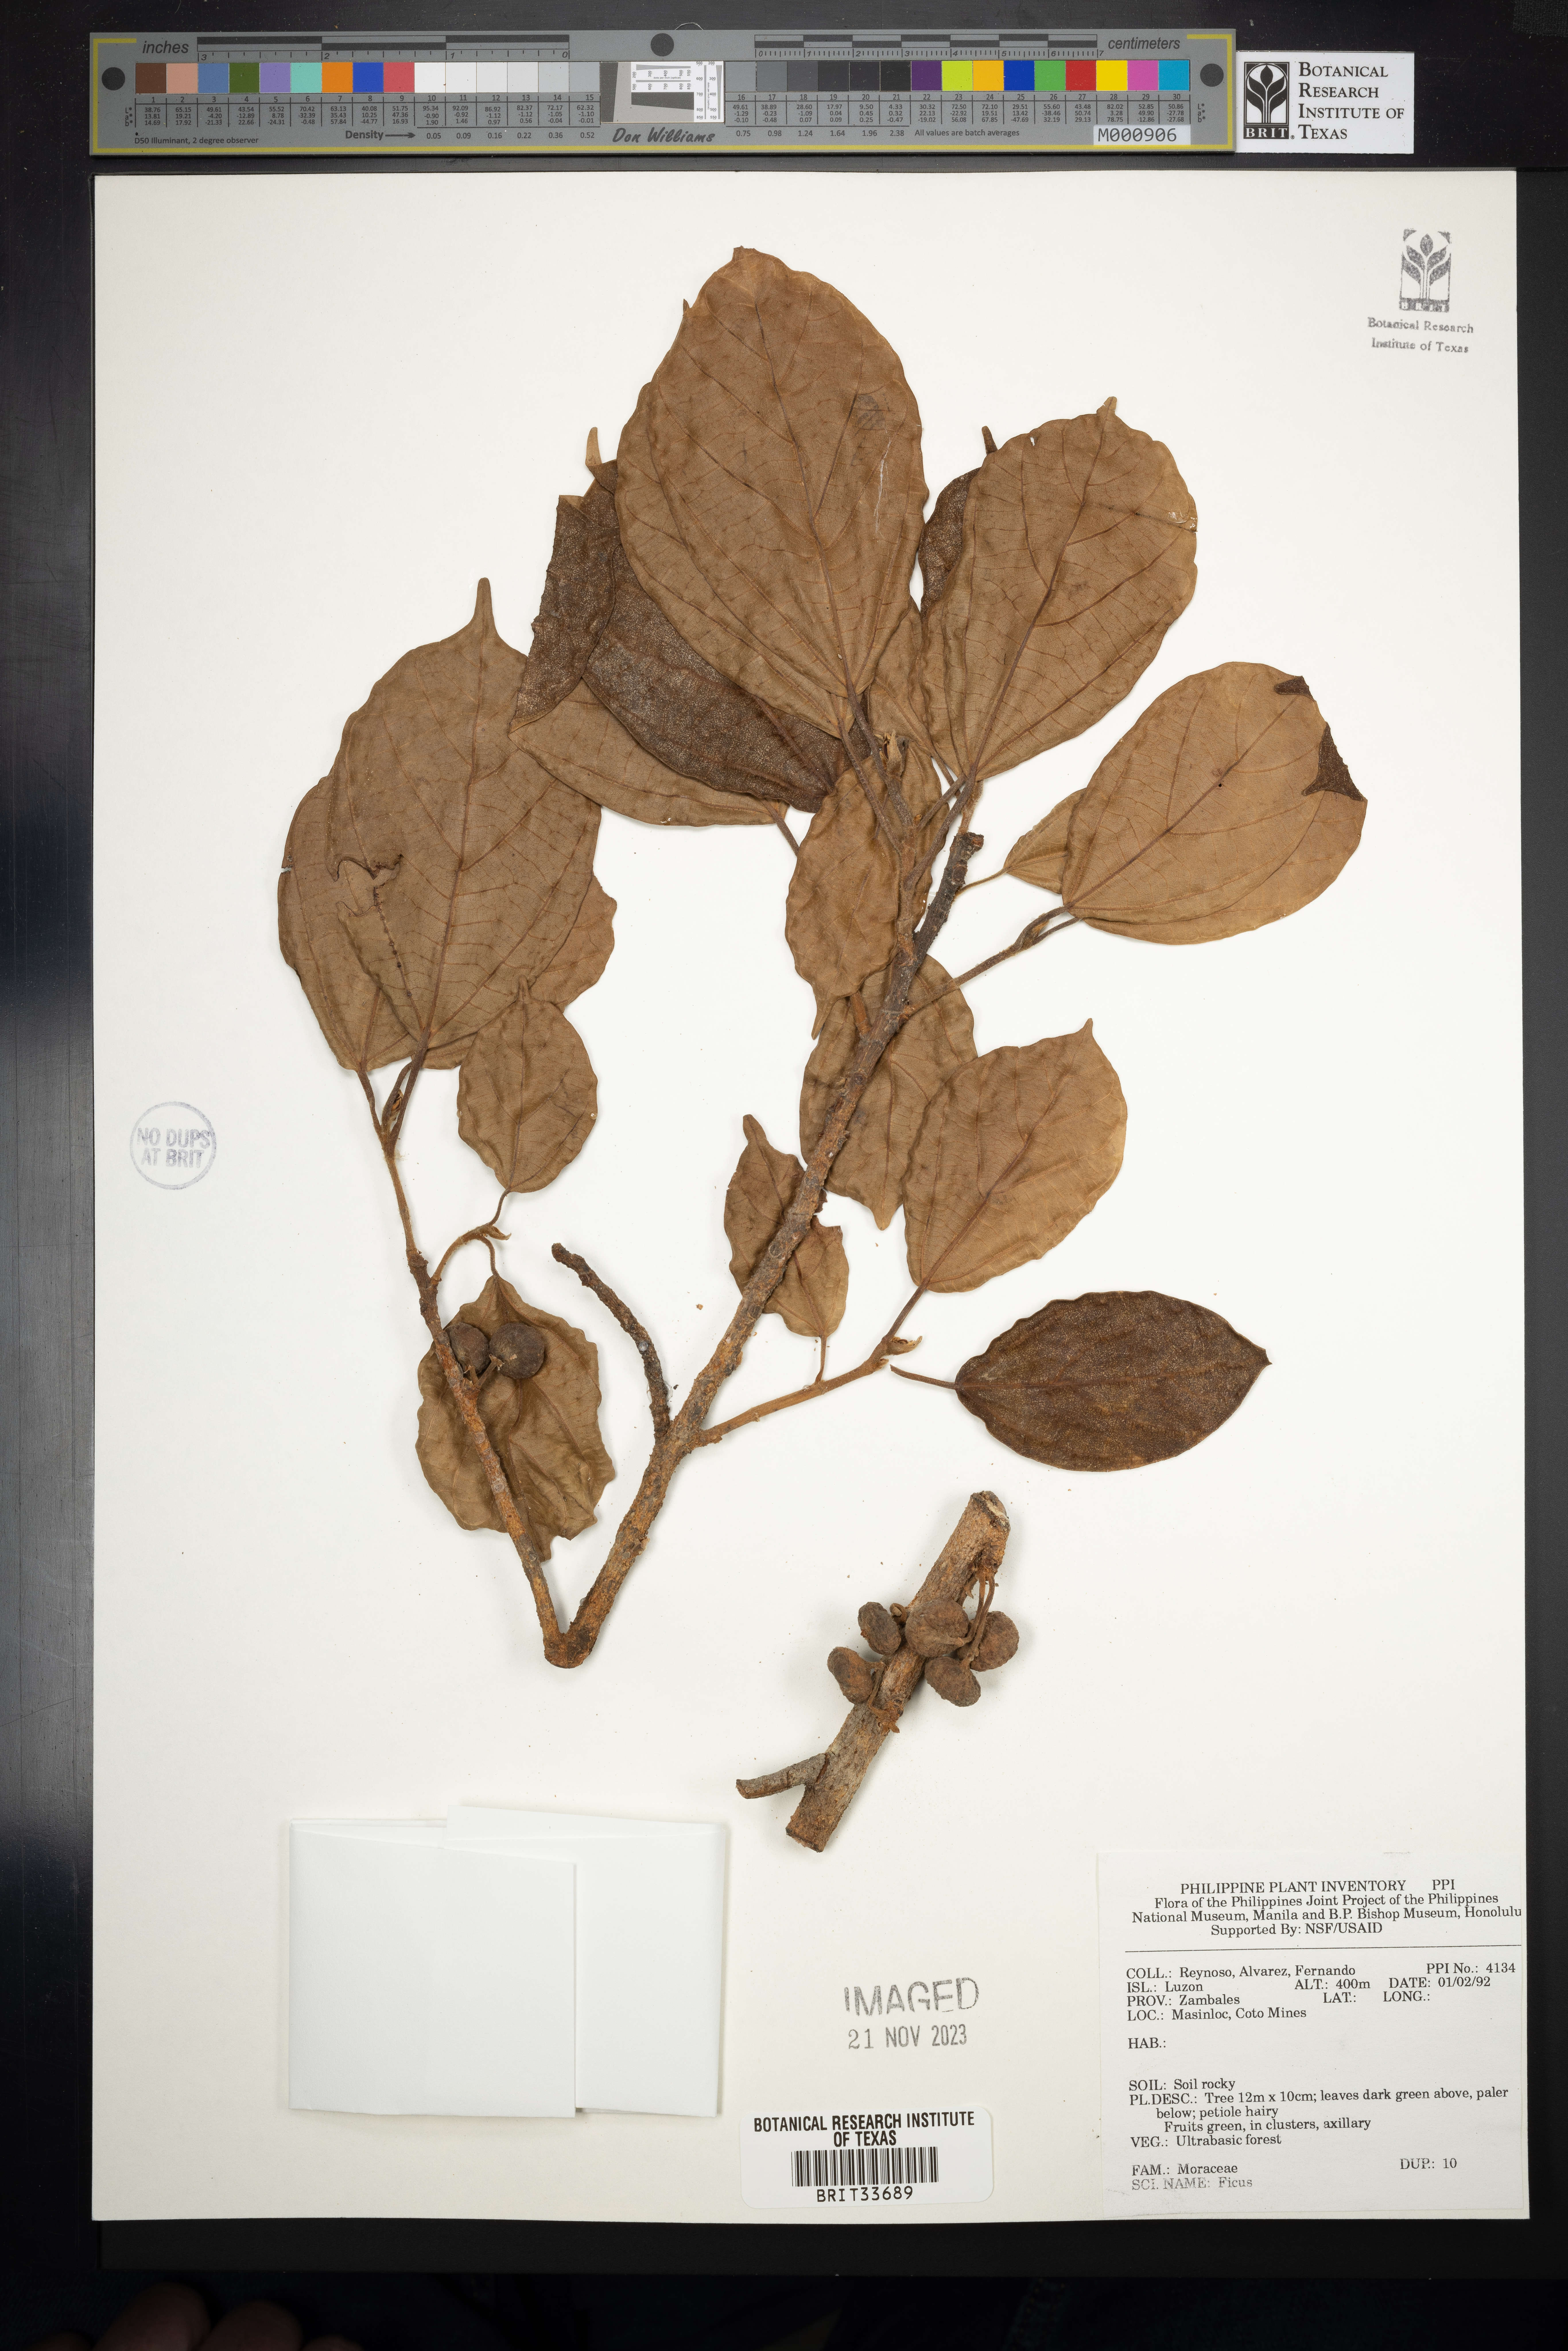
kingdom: Plantae
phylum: Tracheophyta
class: Magnoliopsida
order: Rosales
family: Moraceae
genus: Ficus
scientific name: Ficus
